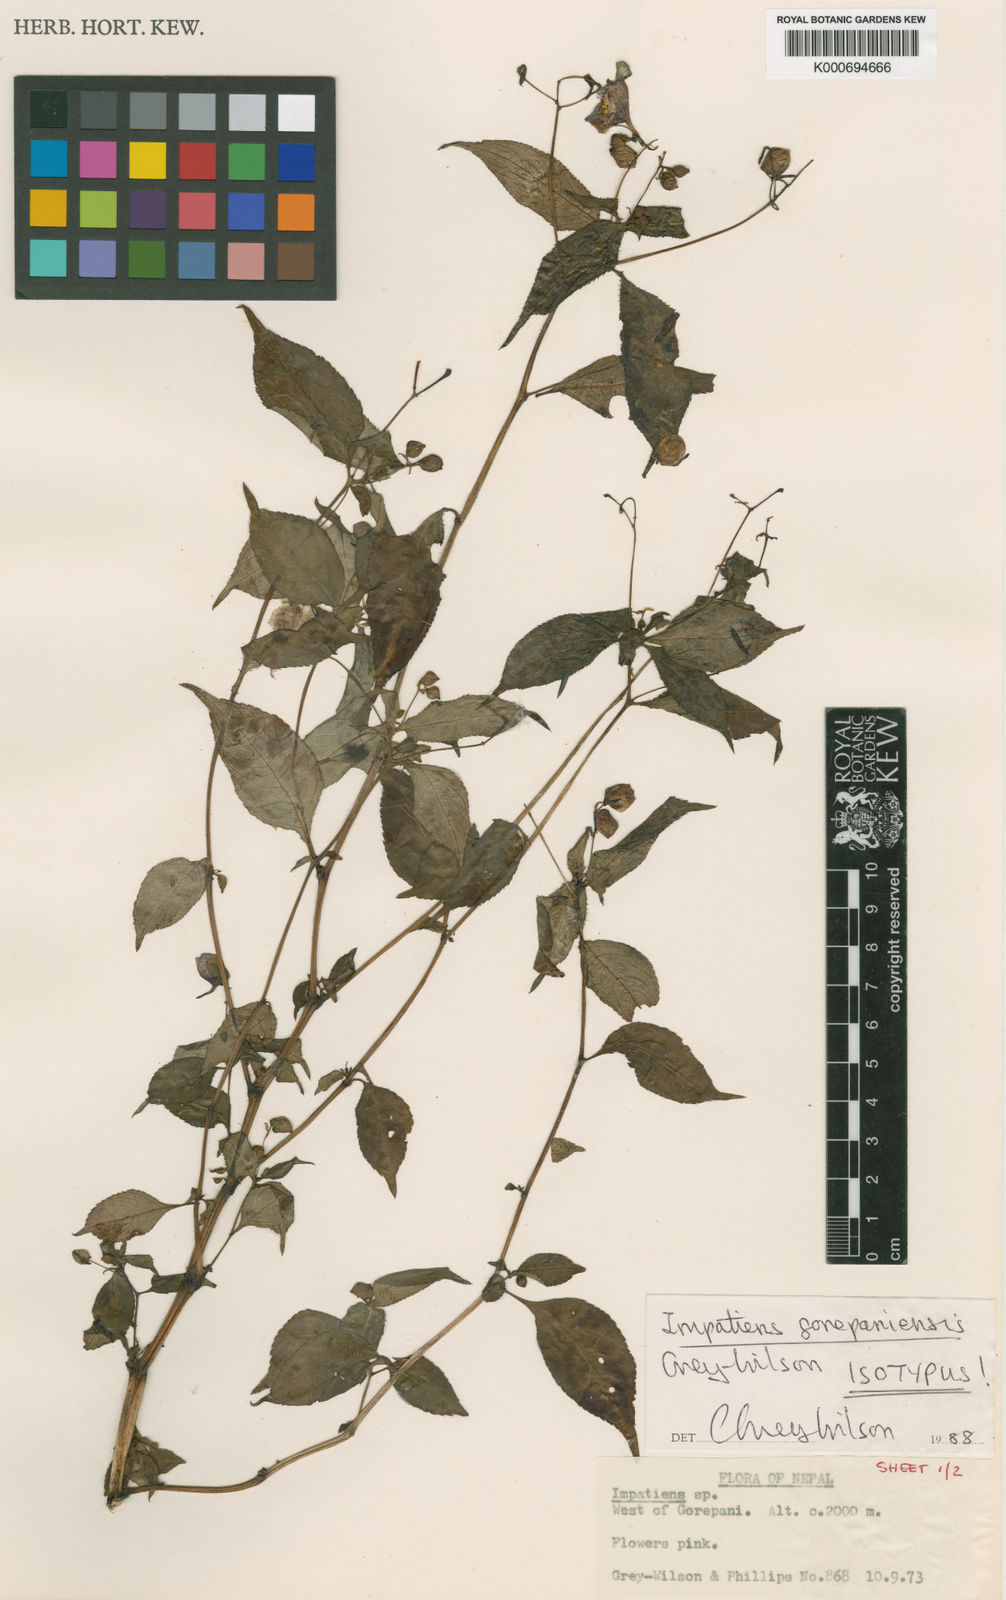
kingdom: Plantae
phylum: Tracheophyta
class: Magnoliopsida
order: Ericales
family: Balsaminaceae
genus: Impatiens
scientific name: Impatiens cymbifera
